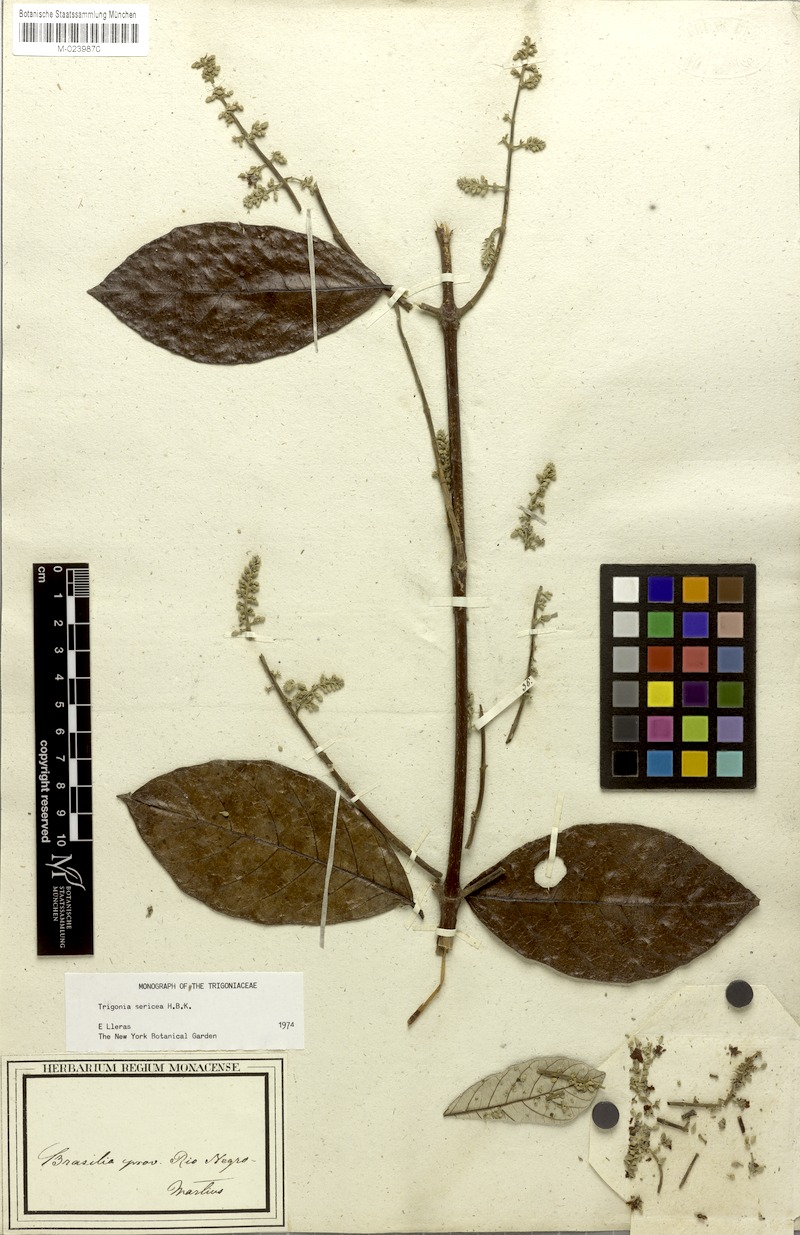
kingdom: Plantae
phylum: Tracheophyta
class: Magnoliopsida
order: Malpighiales
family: Trigoniaceae
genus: Trigonia
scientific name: Trigonia sericea
